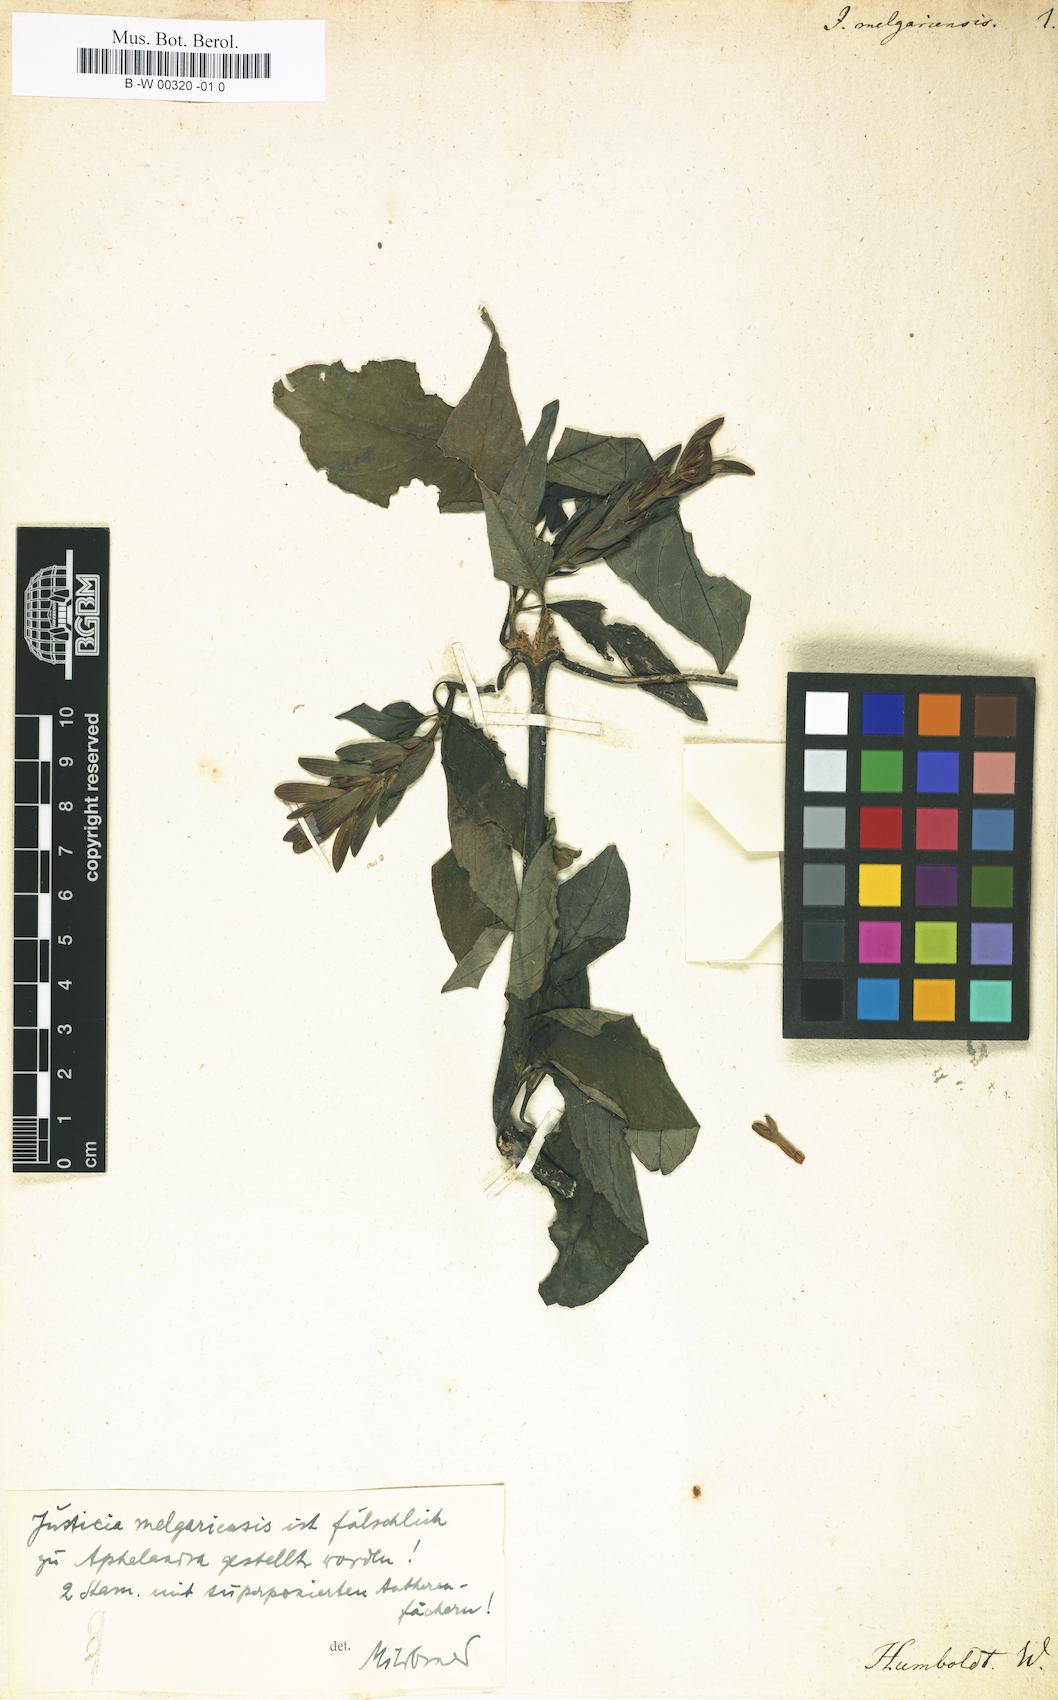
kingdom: Plantae
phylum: Tracheophyta
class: Magnoliopsida
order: Lamiales
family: Acanthaceae
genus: Aphelandra
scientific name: Aphelandra schiedeana
